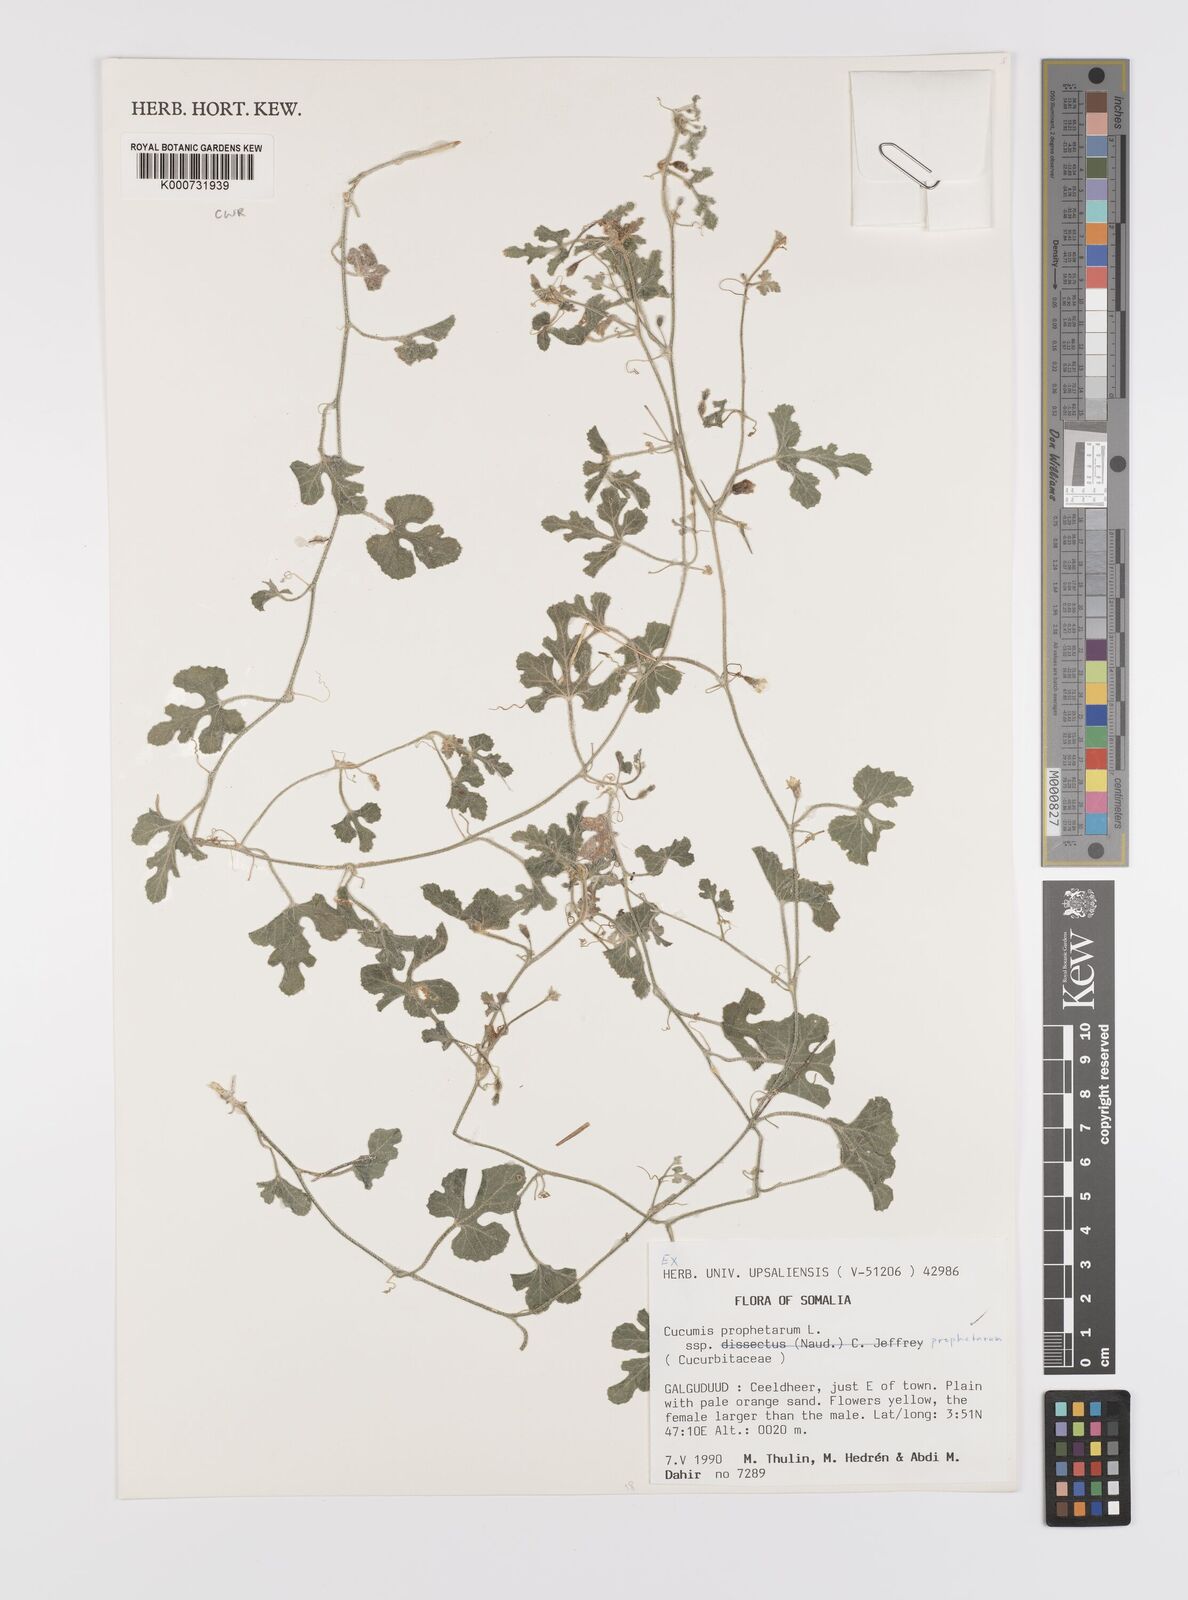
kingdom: Plantae
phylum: Tracheophyta
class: Magnoliopsida
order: Cucurbitales
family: Cucurbitaceae
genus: Cucumis
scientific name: Cucumis prophetarum
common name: Wild cucumber
